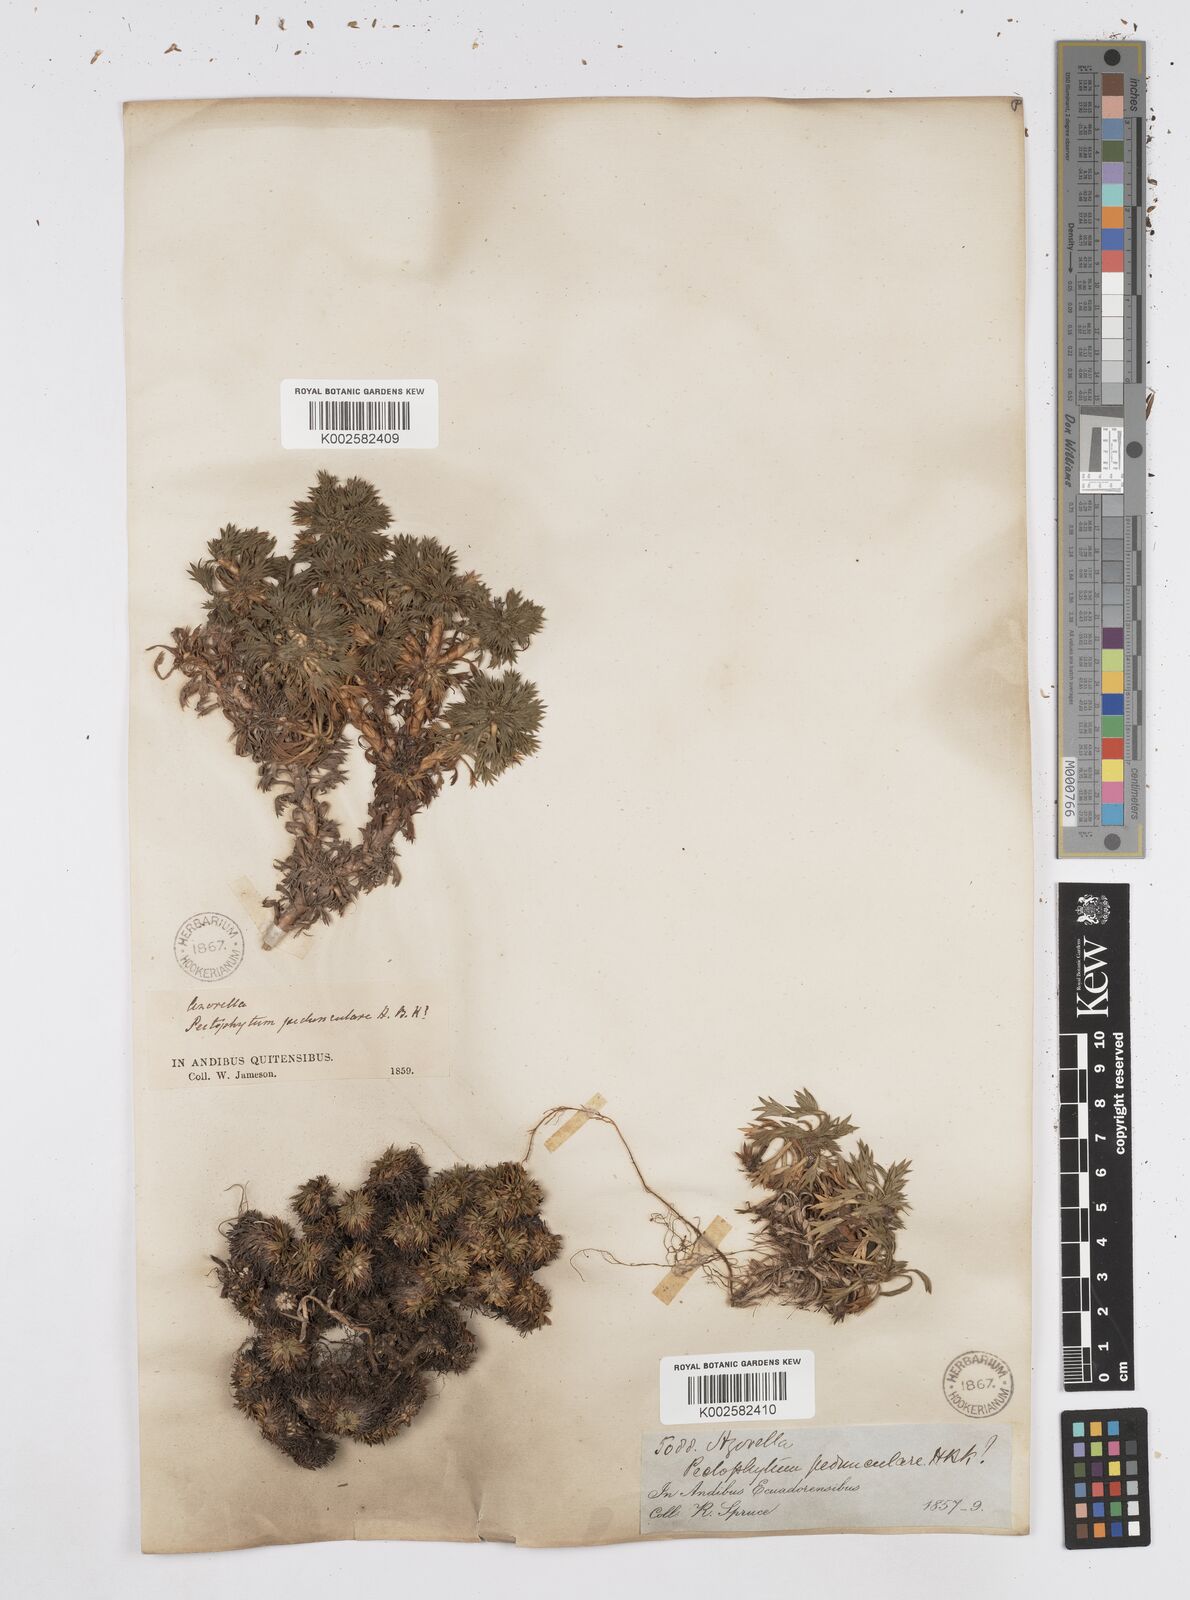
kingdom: Plantae
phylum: Tracheophyta
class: Magnoliopsida
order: Apiales
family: Apiaceae
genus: Azorella
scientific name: Azorella pedunculata
